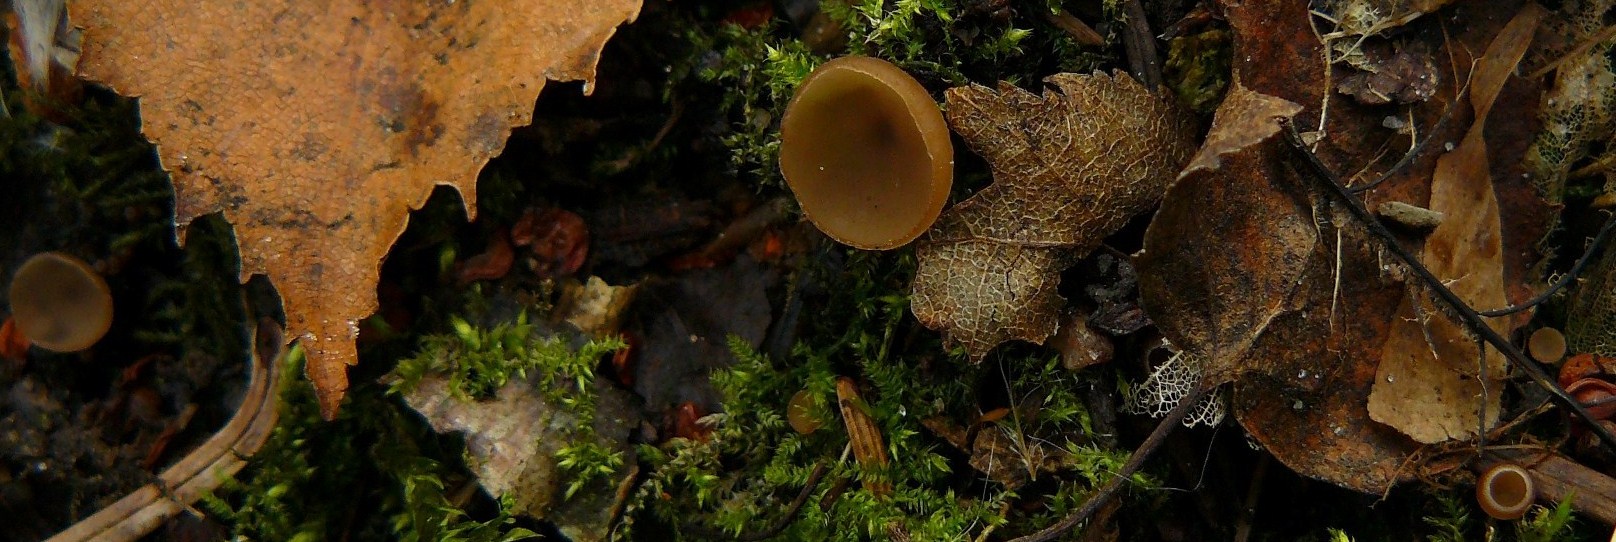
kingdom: Fungi
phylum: Ascomycota
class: Leotiomycetes
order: Helotiales
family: Sclerotiniaceae
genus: Ciboria
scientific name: Ciboria amentacea
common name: ellerakle-knoldskive
